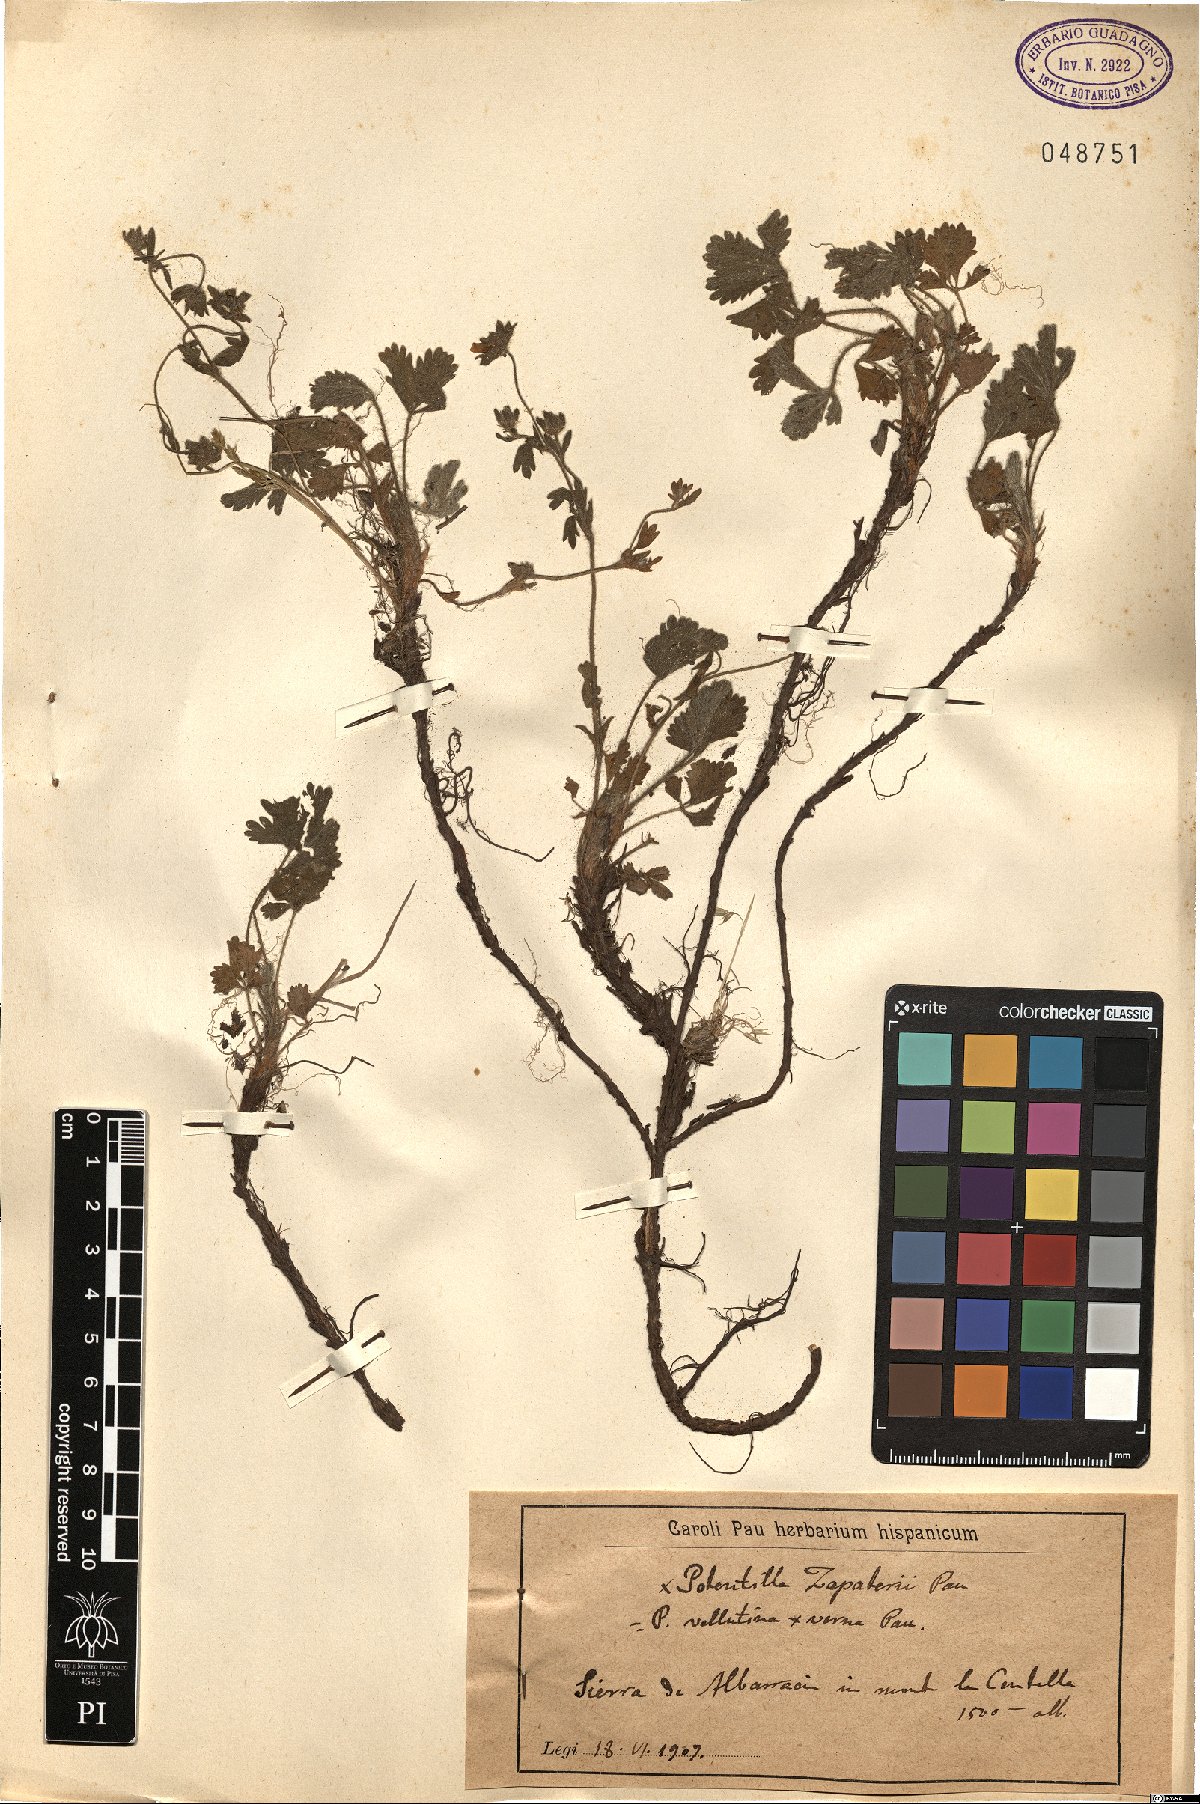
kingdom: Plantae
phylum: Tracheophyta
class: Magnoliopsida
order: Rosales
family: Rosaceae
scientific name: Rosaceae
